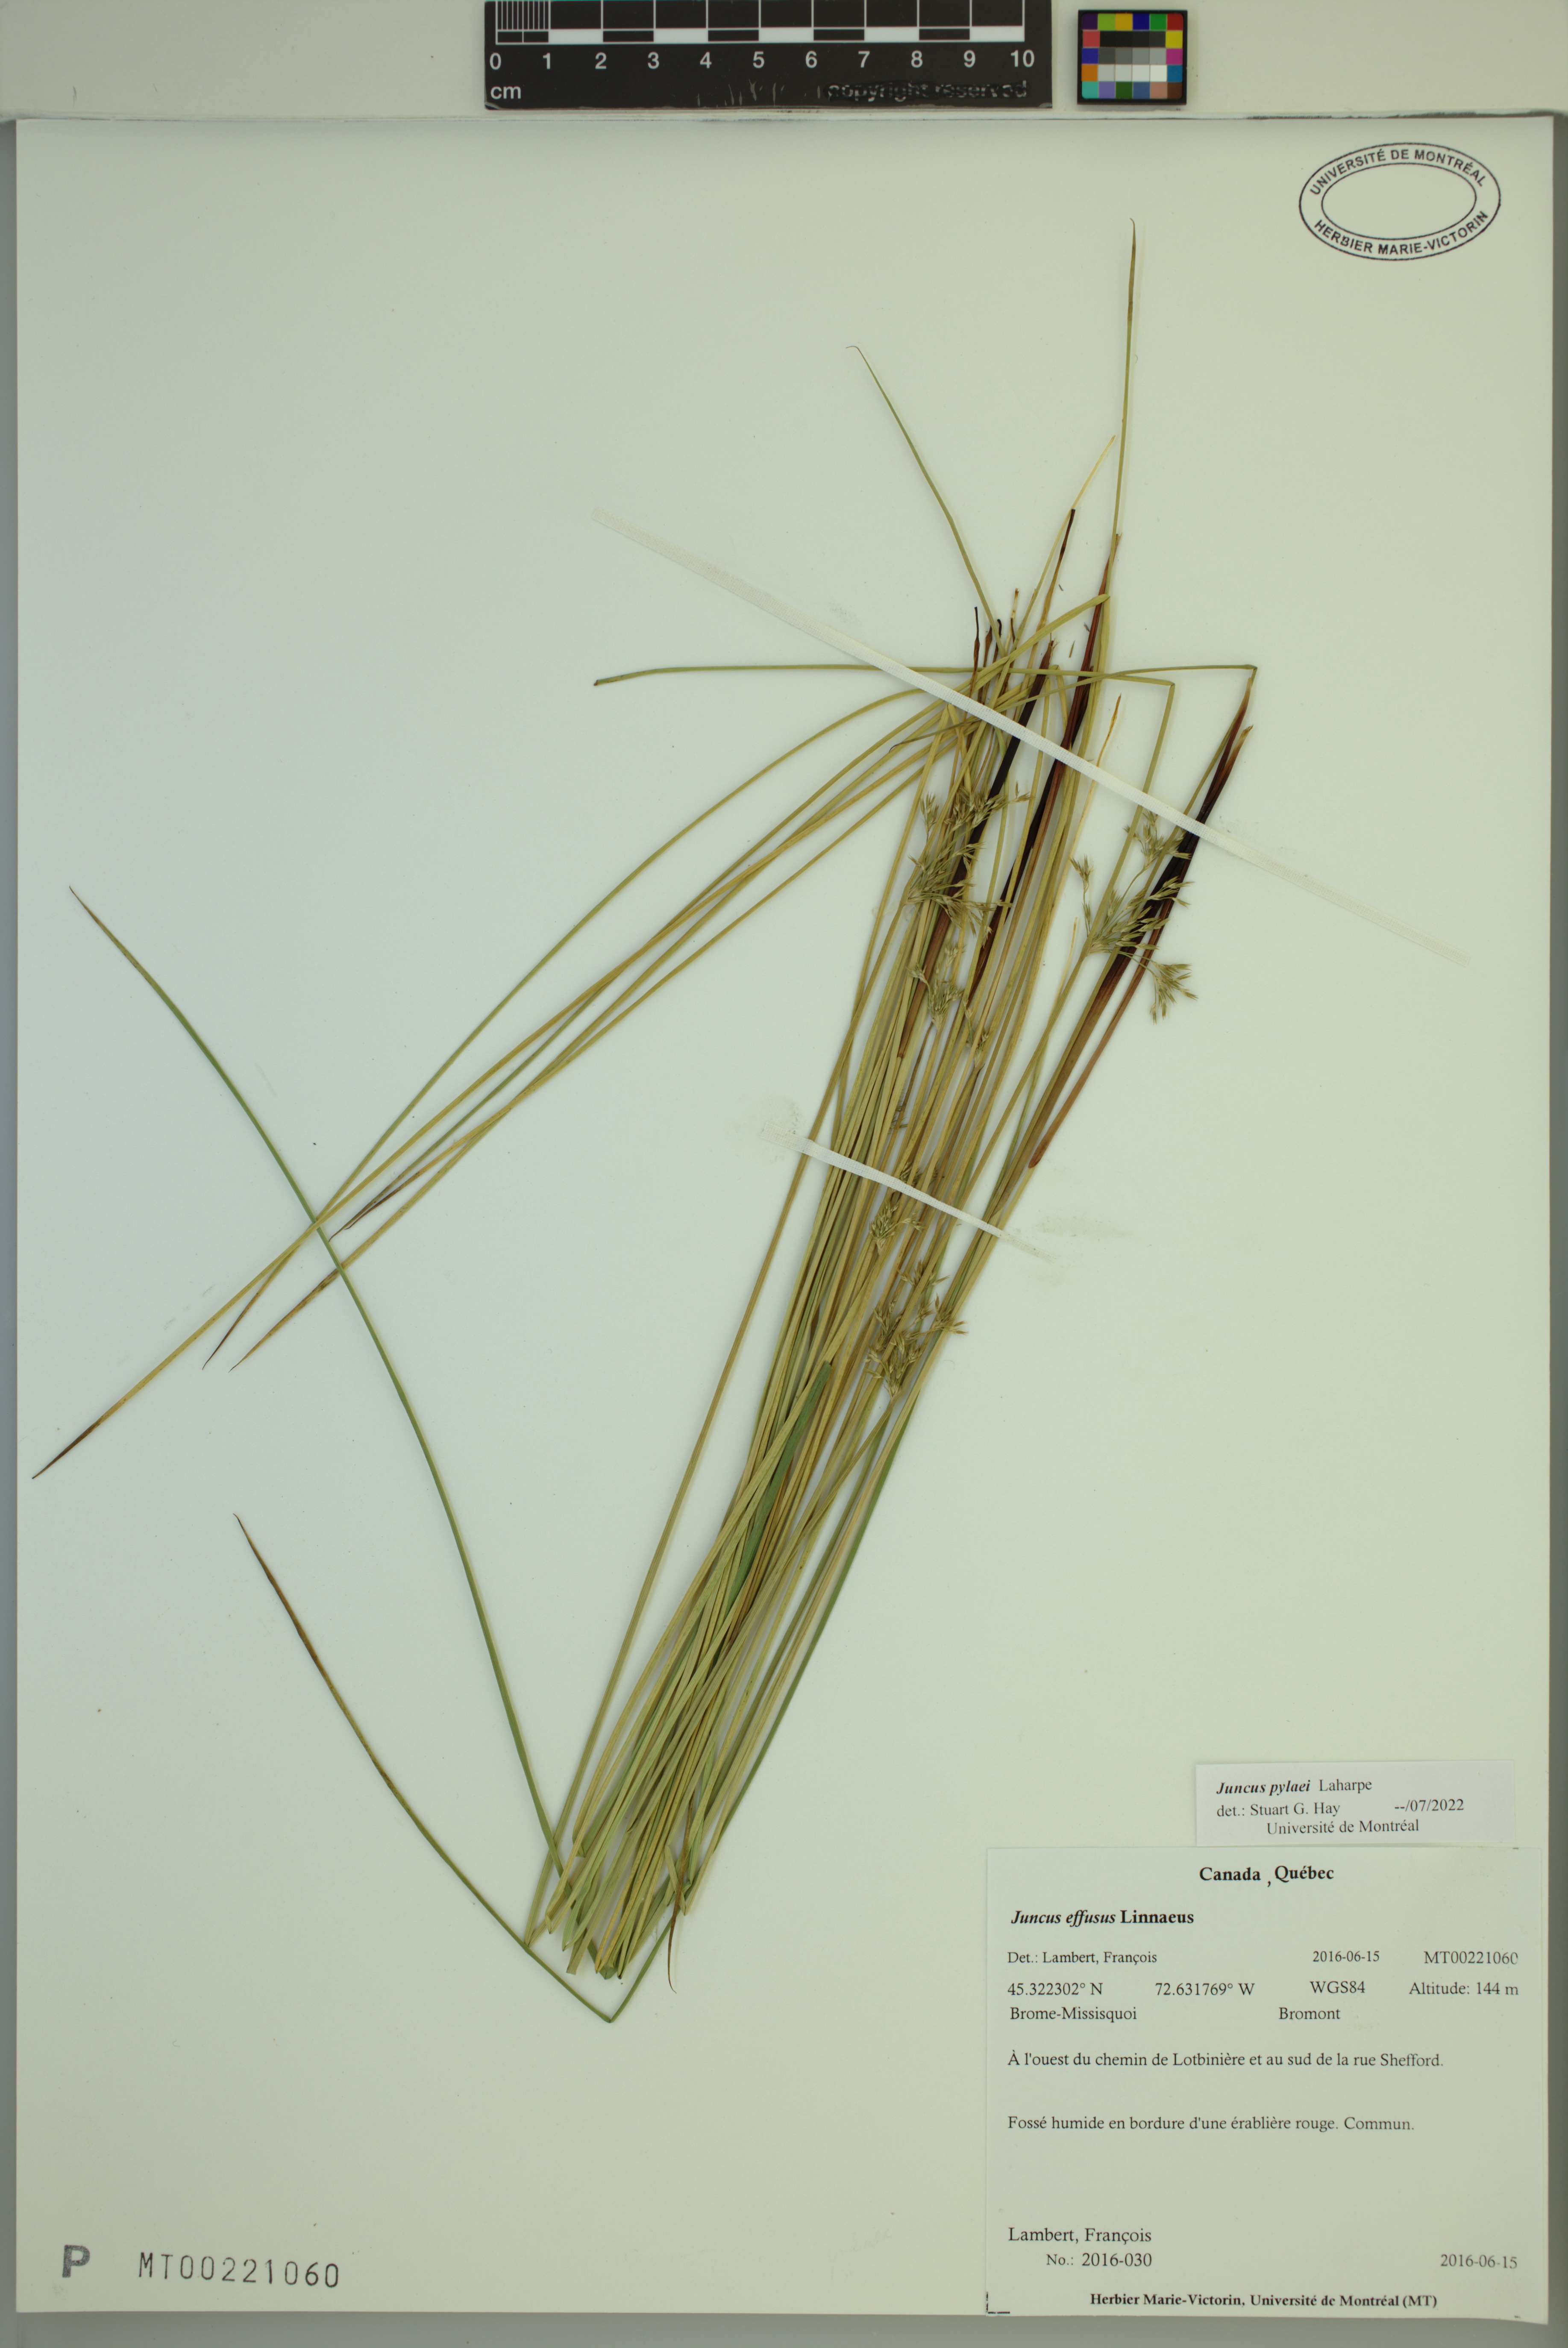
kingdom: Plantae
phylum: Tracheophyta
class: Liliopsida
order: Poales
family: Juncaceae
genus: Juncus
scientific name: Juncus effusus
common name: Soft rush
